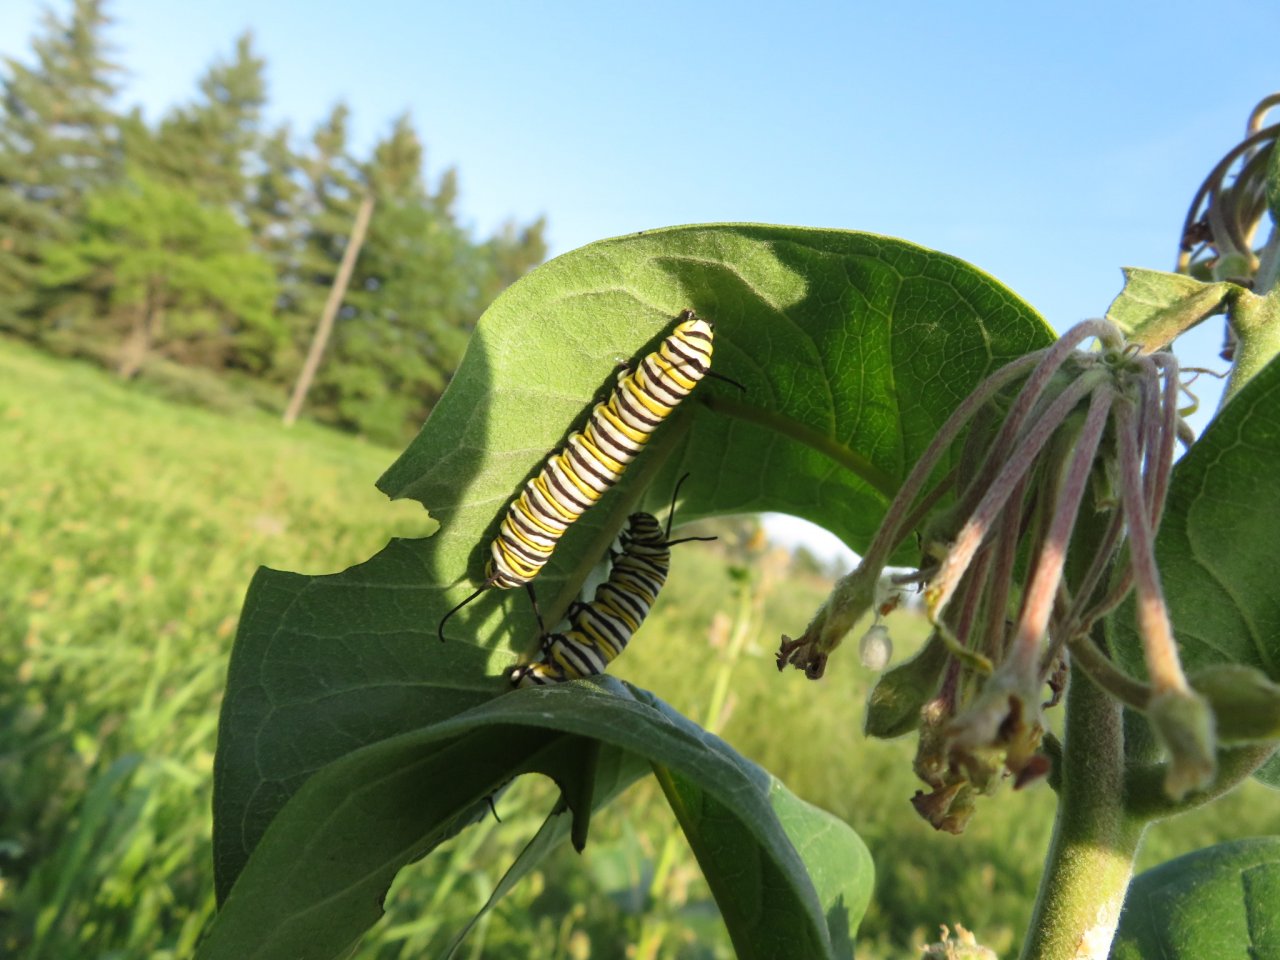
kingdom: Animalia
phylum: Arthropoda
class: Insecta
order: Lepidoptera
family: Nymphalidae
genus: Danaus
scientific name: Danaus plexippus
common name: Monarch
